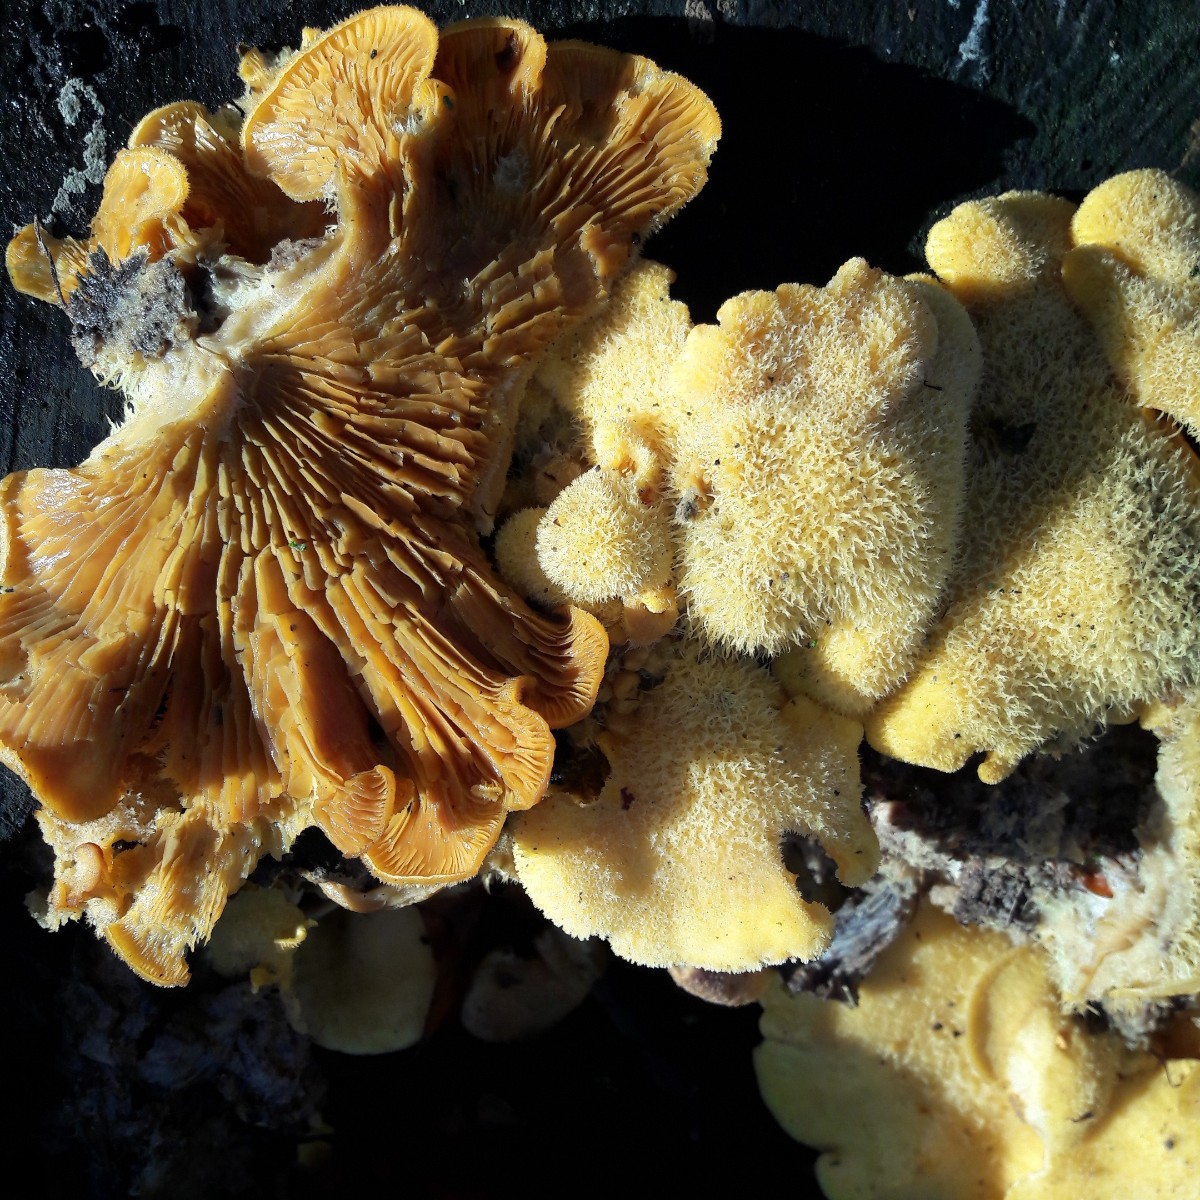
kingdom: Fungi
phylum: Basidiomycota
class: Agaricomycetes
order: Agaricales
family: Phyllotopsidaceae
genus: Phyllotopsis
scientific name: Phyllotopsis nidulans
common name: okkerblad
